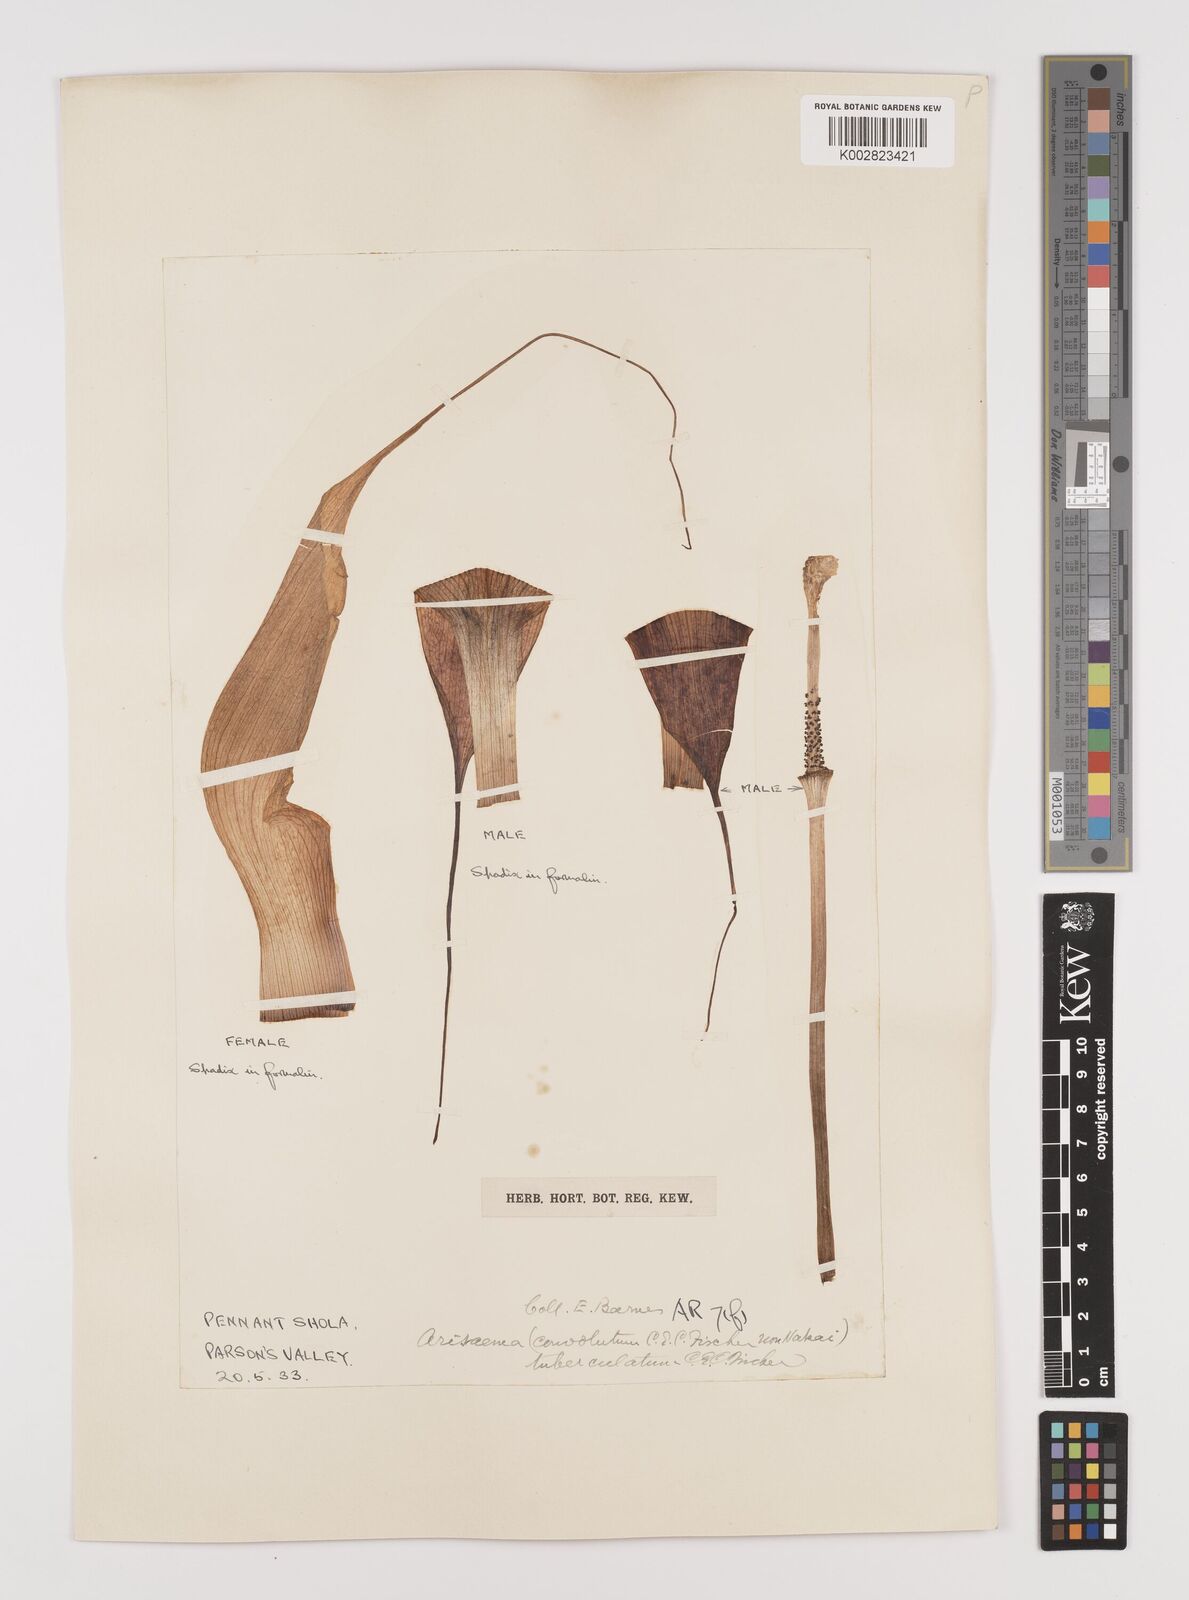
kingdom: Plantae
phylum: Tracheophyta
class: Liliopsida
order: Alismatales
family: Araceae
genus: Arisaema
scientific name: Arisaema tuberculatum
